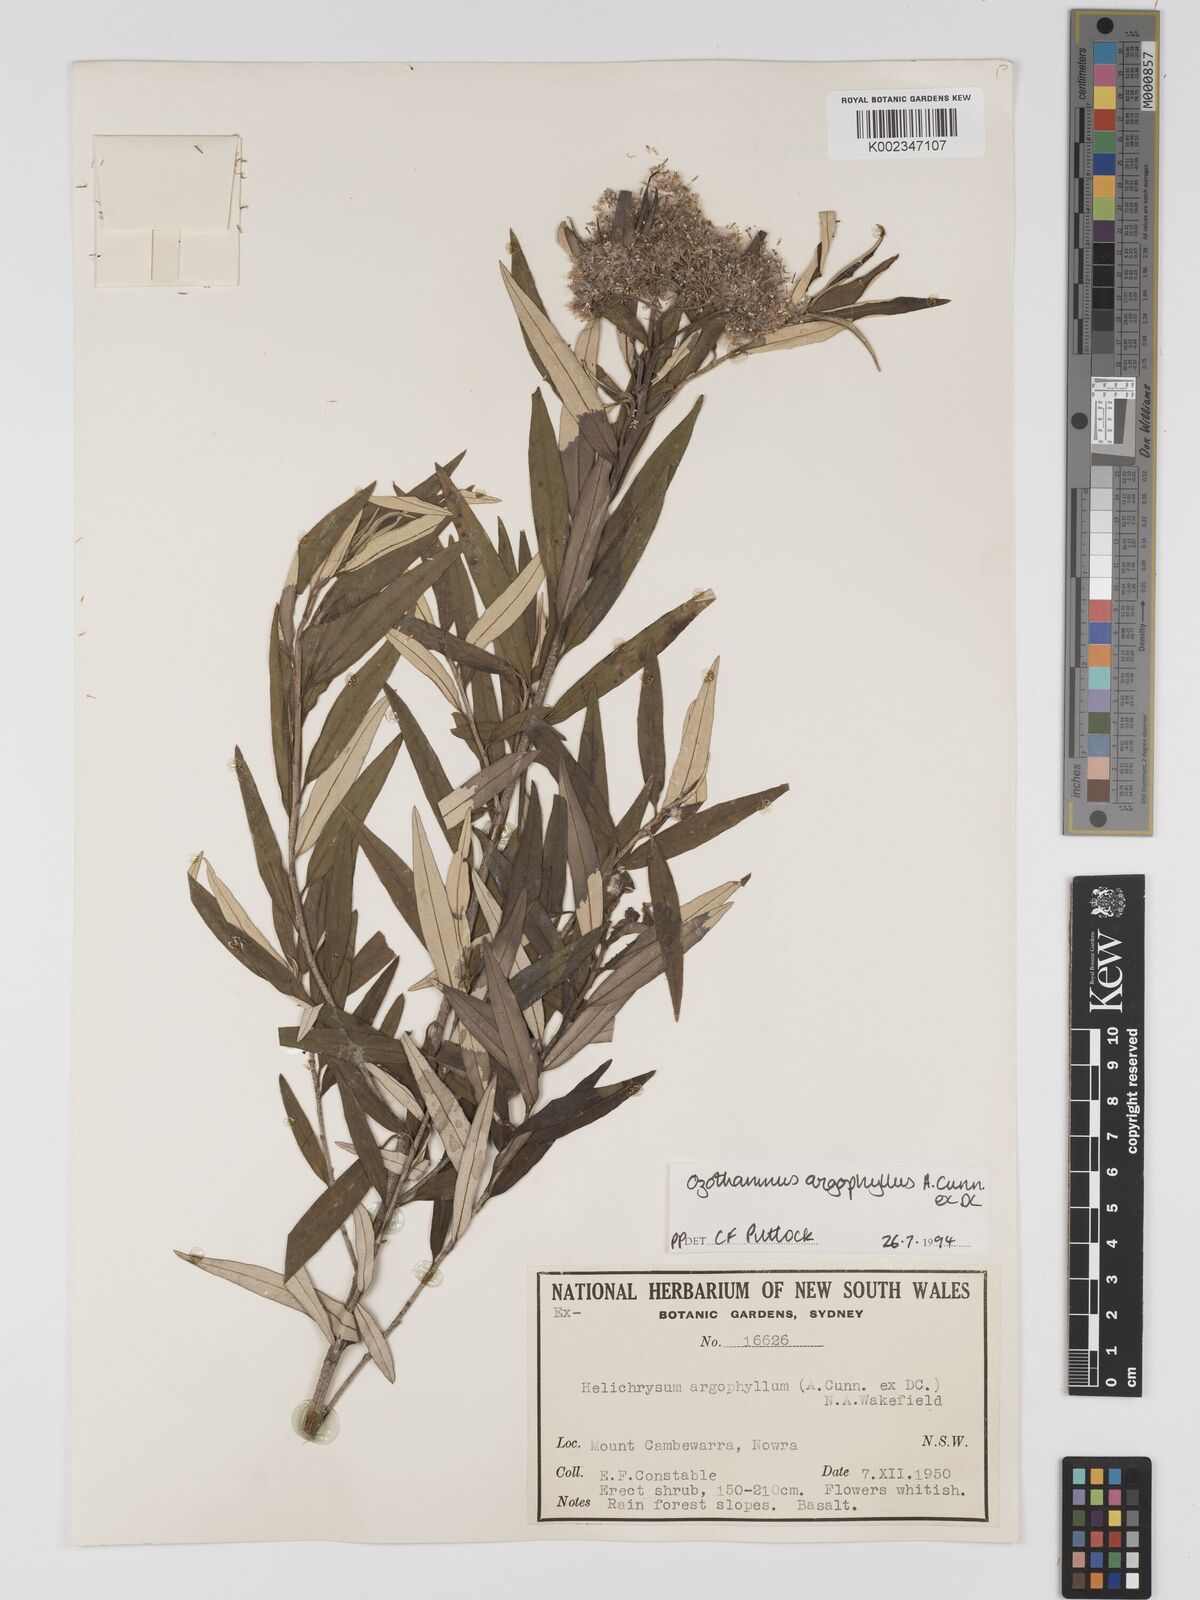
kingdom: Plantae
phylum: Tracheophyta
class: Magnoliopsida
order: Asterales
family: Asteraceae
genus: Ozothamnus
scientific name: Ozothamnus argophyllus
